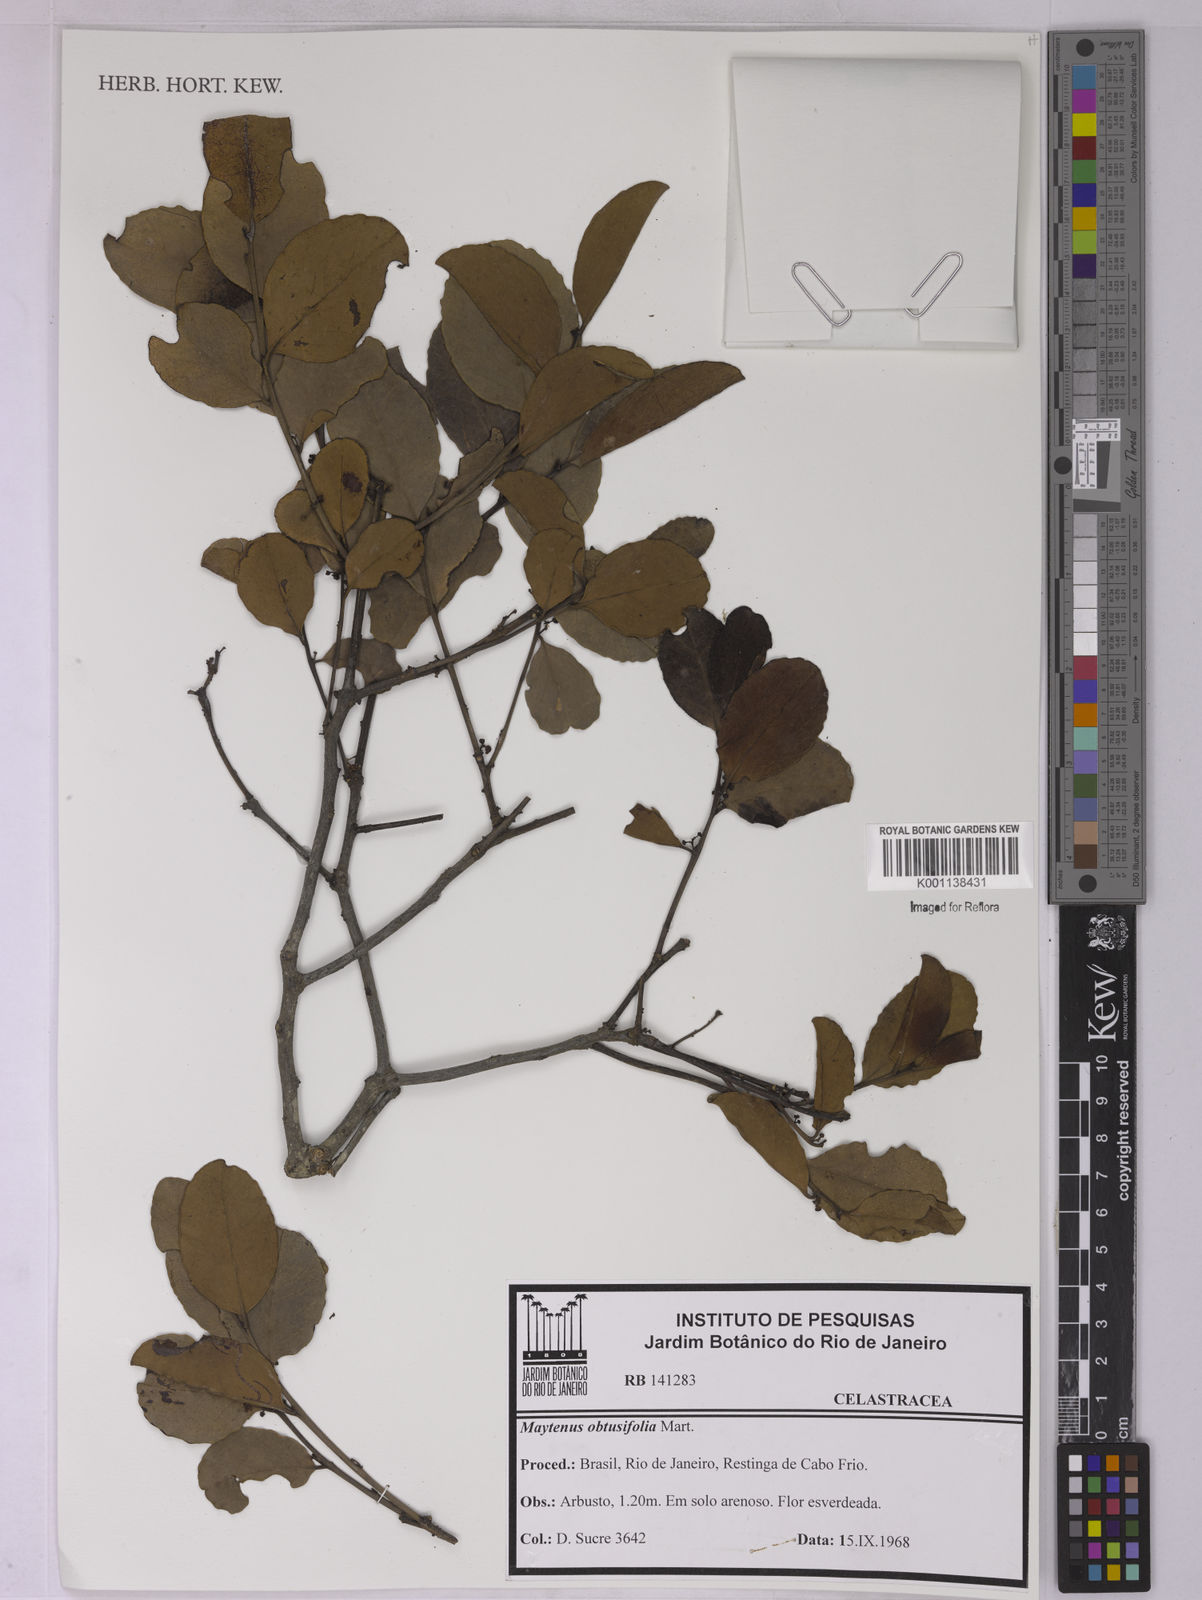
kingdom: Plantae
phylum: Tracheophyta
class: Magnoliopsida
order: Celastrales
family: Celastraceae
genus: Monteverdia
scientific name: Monteverdia obtusifolia
